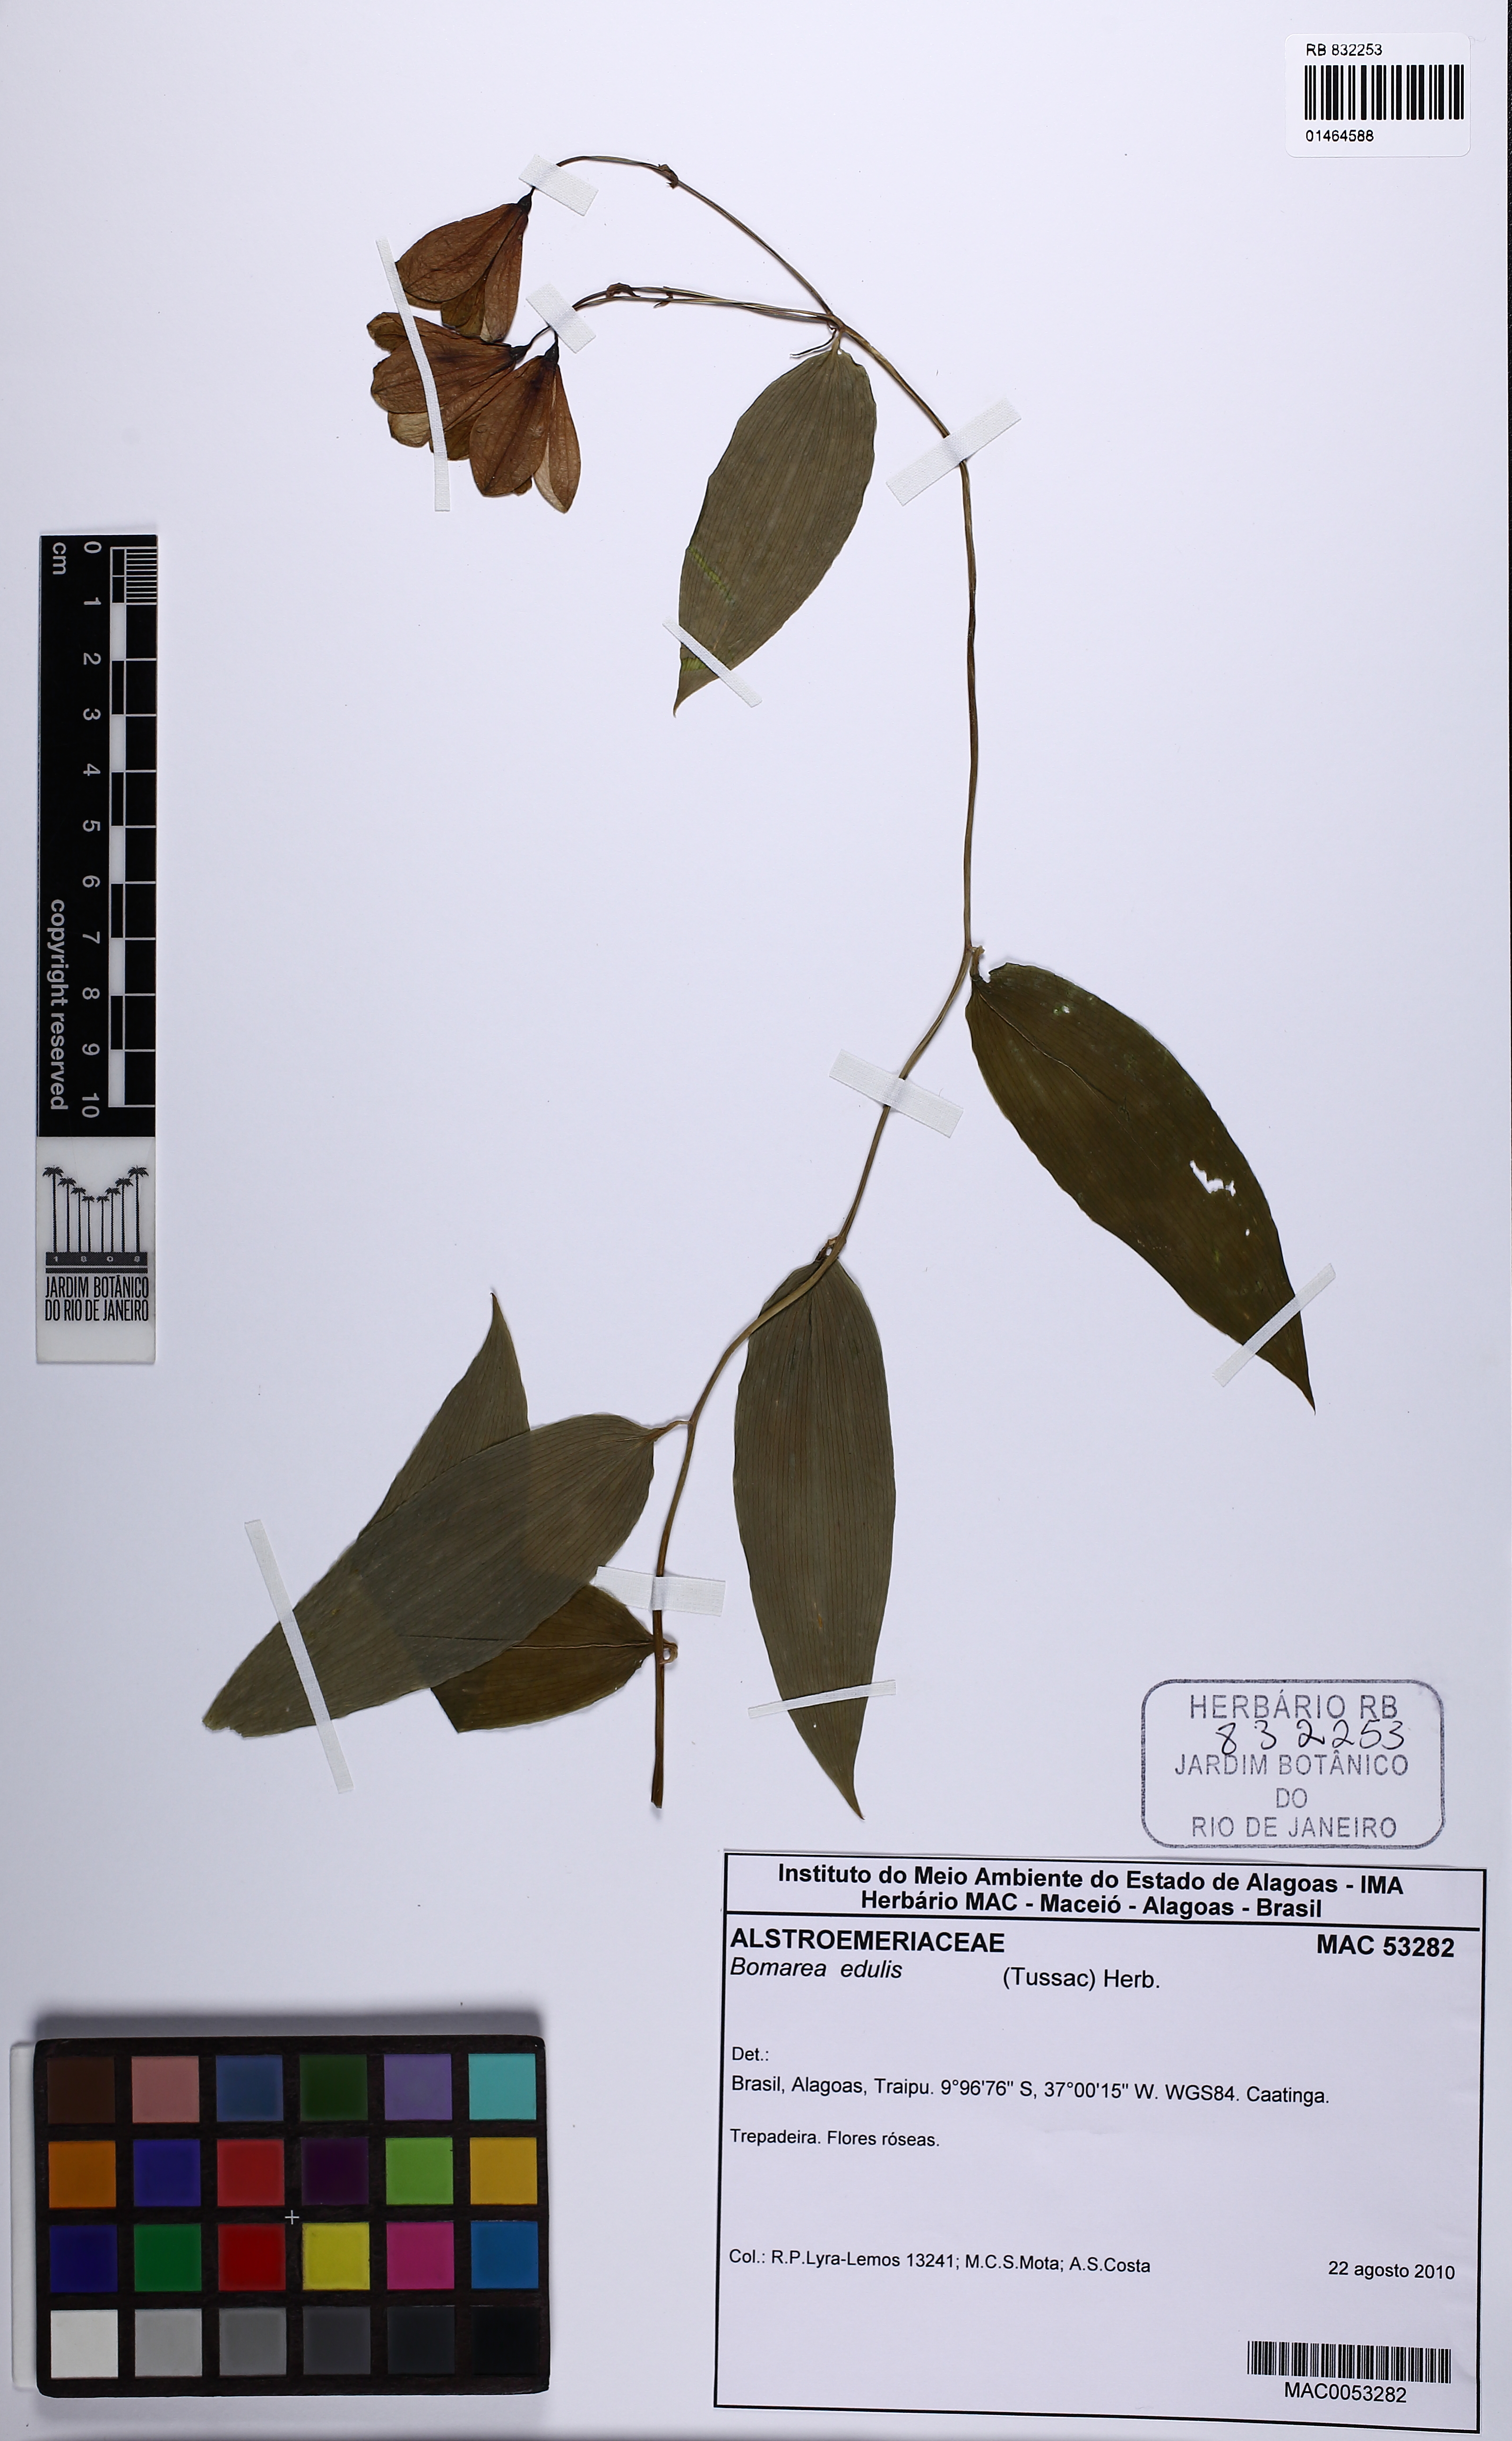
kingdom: Plantae
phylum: Tracheophyta
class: Liliopsida
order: Liliales
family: Alstroemeriaceae
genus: Bomarea
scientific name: Bomarea edulis
